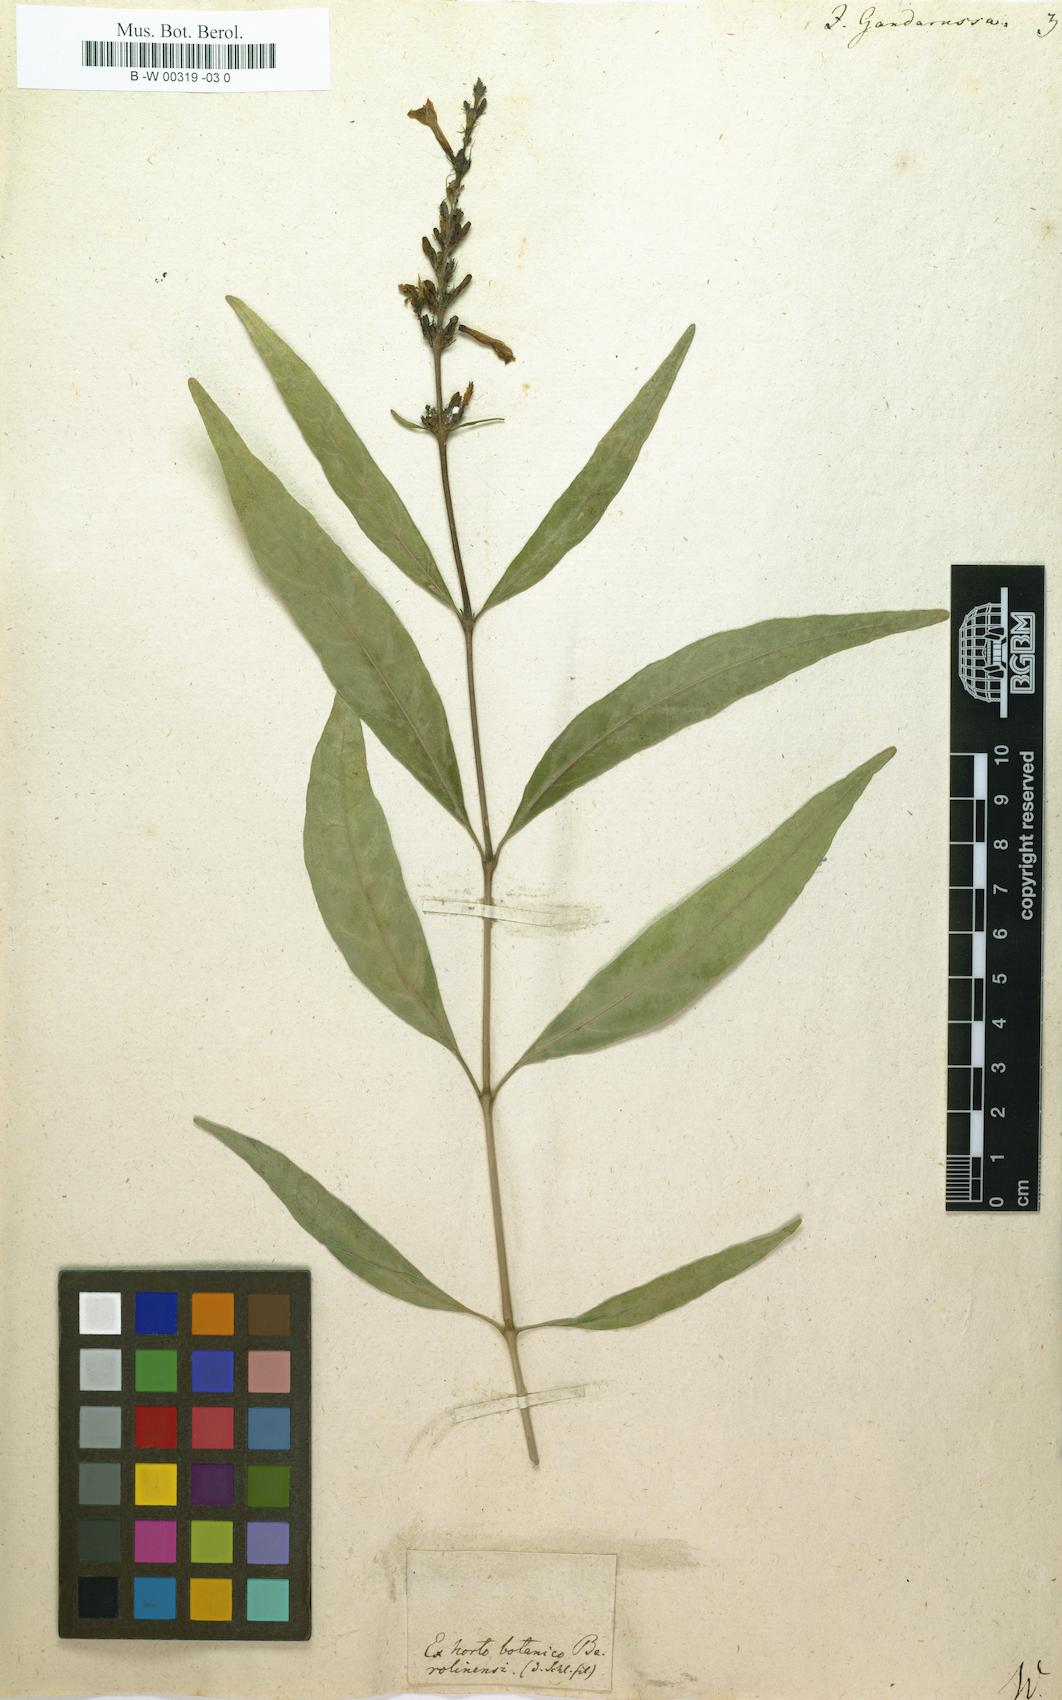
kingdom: Plantae
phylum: Tracheophyta
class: Magnoliopsida
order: Lamiales
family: Acanthaceae
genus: Justicia
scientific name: Justicia gendarussa
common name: Warer willow
